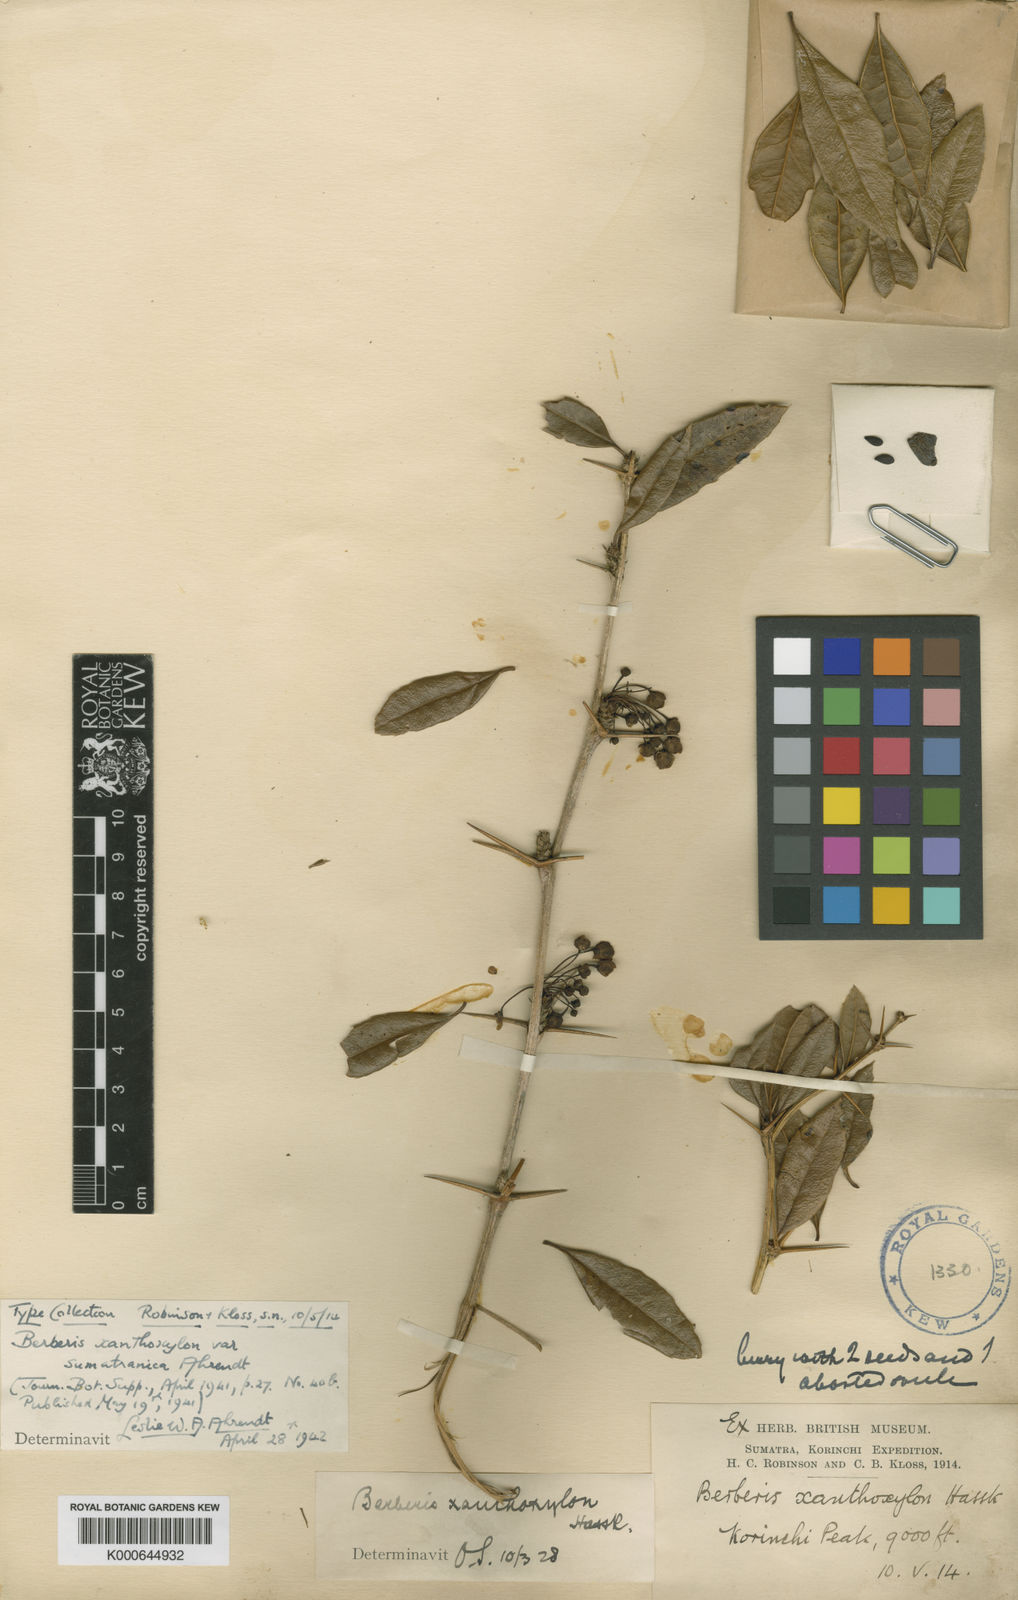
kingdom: Plantae
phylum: Tracheophyta
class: Magnoliopsida
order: Ranunculales
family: Berberidaceae
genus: Berberis
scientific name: Berberis xanthoxylon
